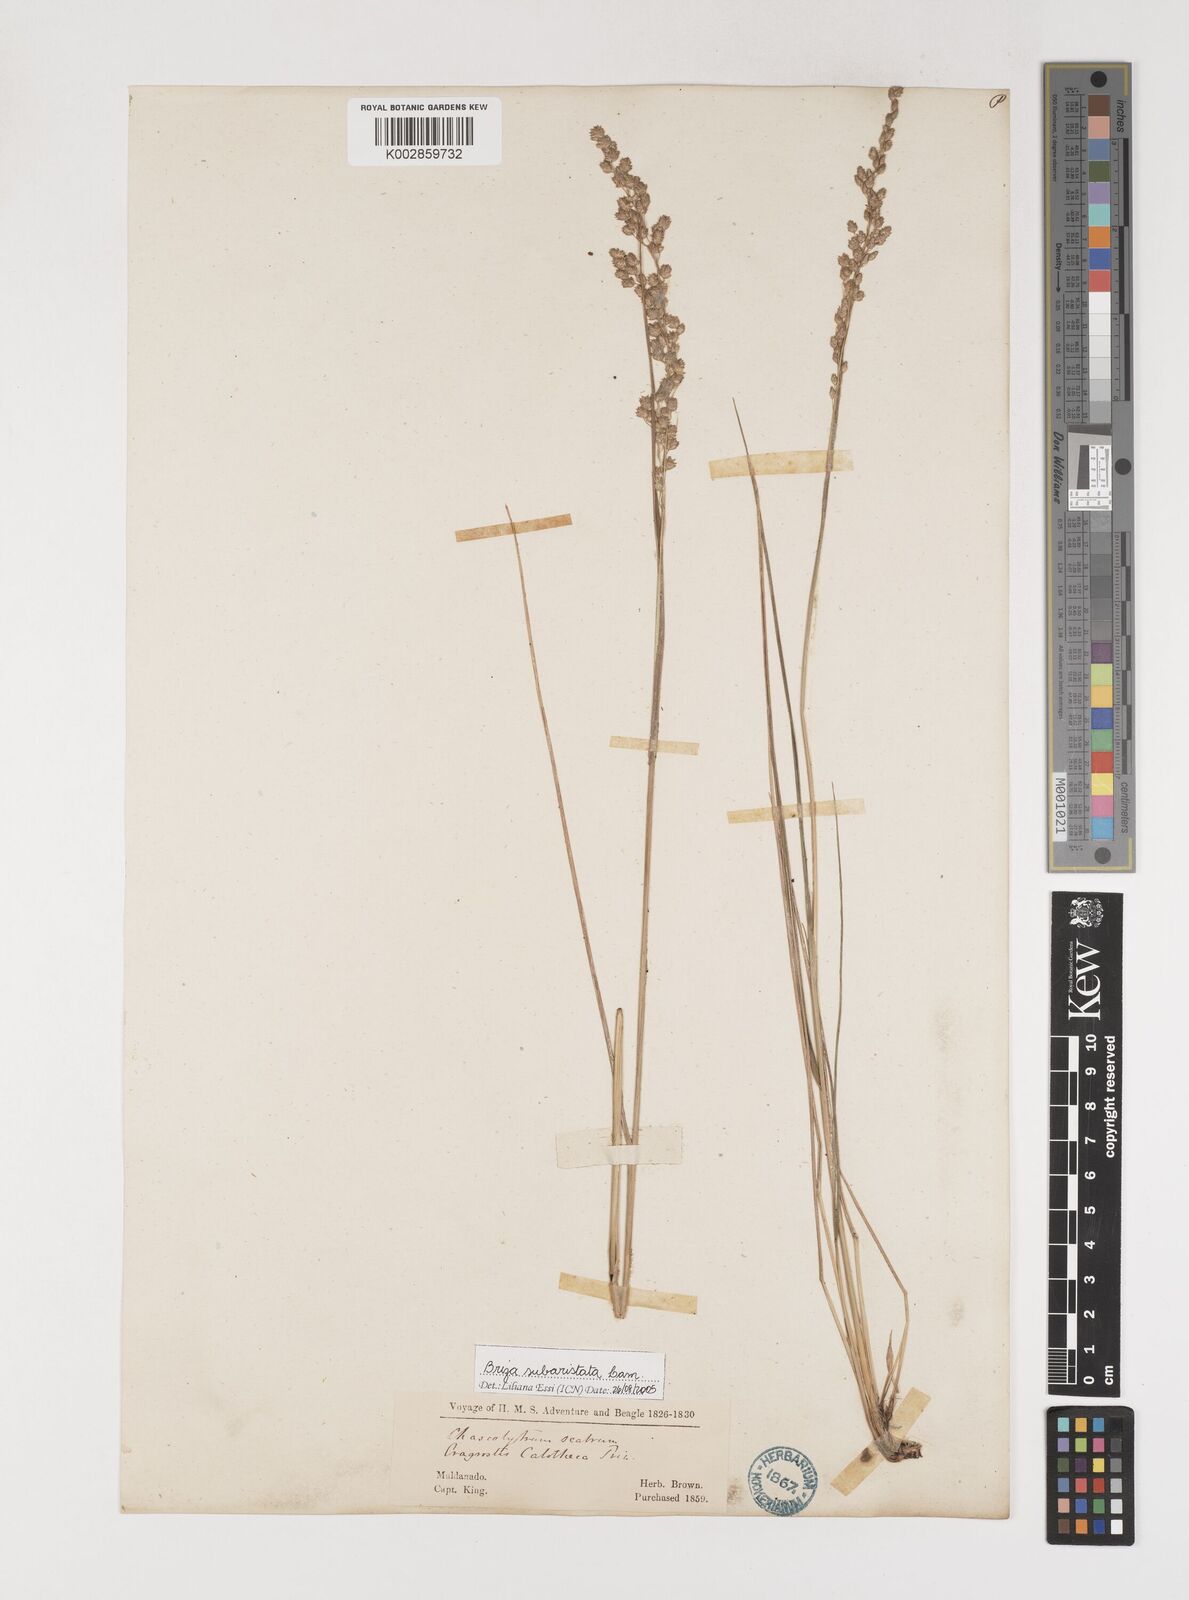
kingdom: Plantae
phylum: Tracheophyta
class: Liliopsida
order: Poales
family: Poaceae
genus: Chascolytrum
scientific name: Chascolytrum subaristatum
